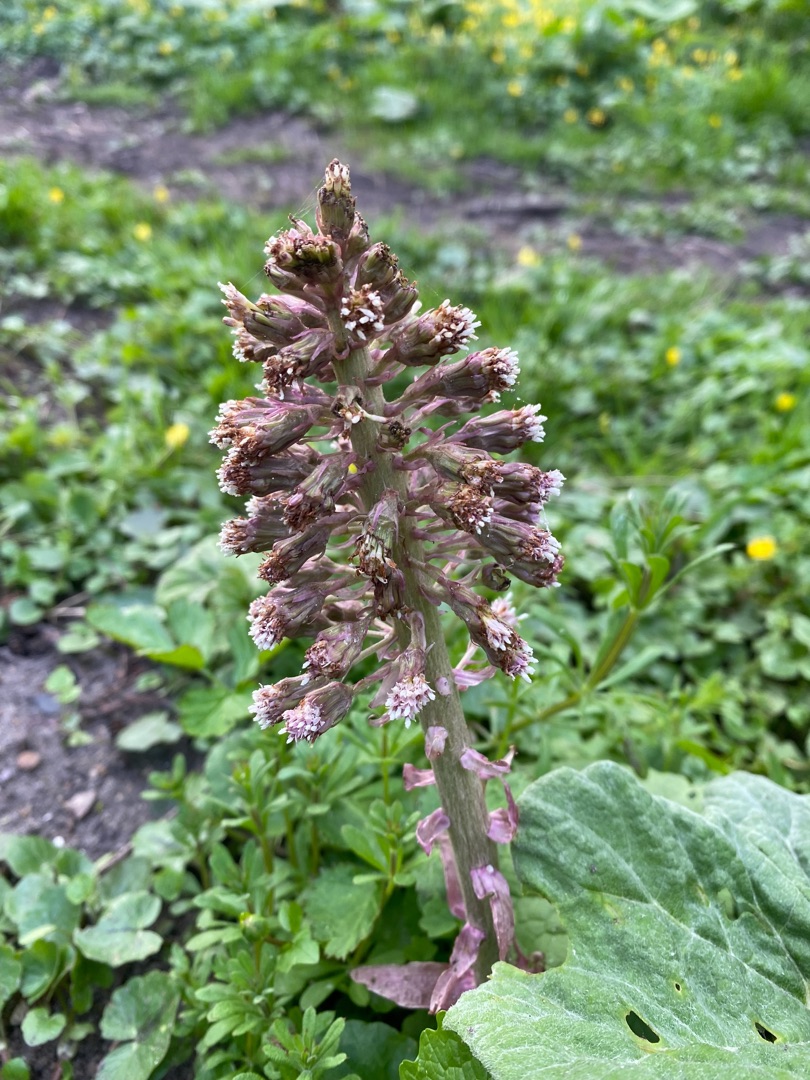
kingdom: Plantae
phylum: Tracheophyta
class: Magnoliopsida
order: Asterales
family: Asteraceae
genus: Petasites
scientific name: Petasites hybridus
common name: Rød hestehov
